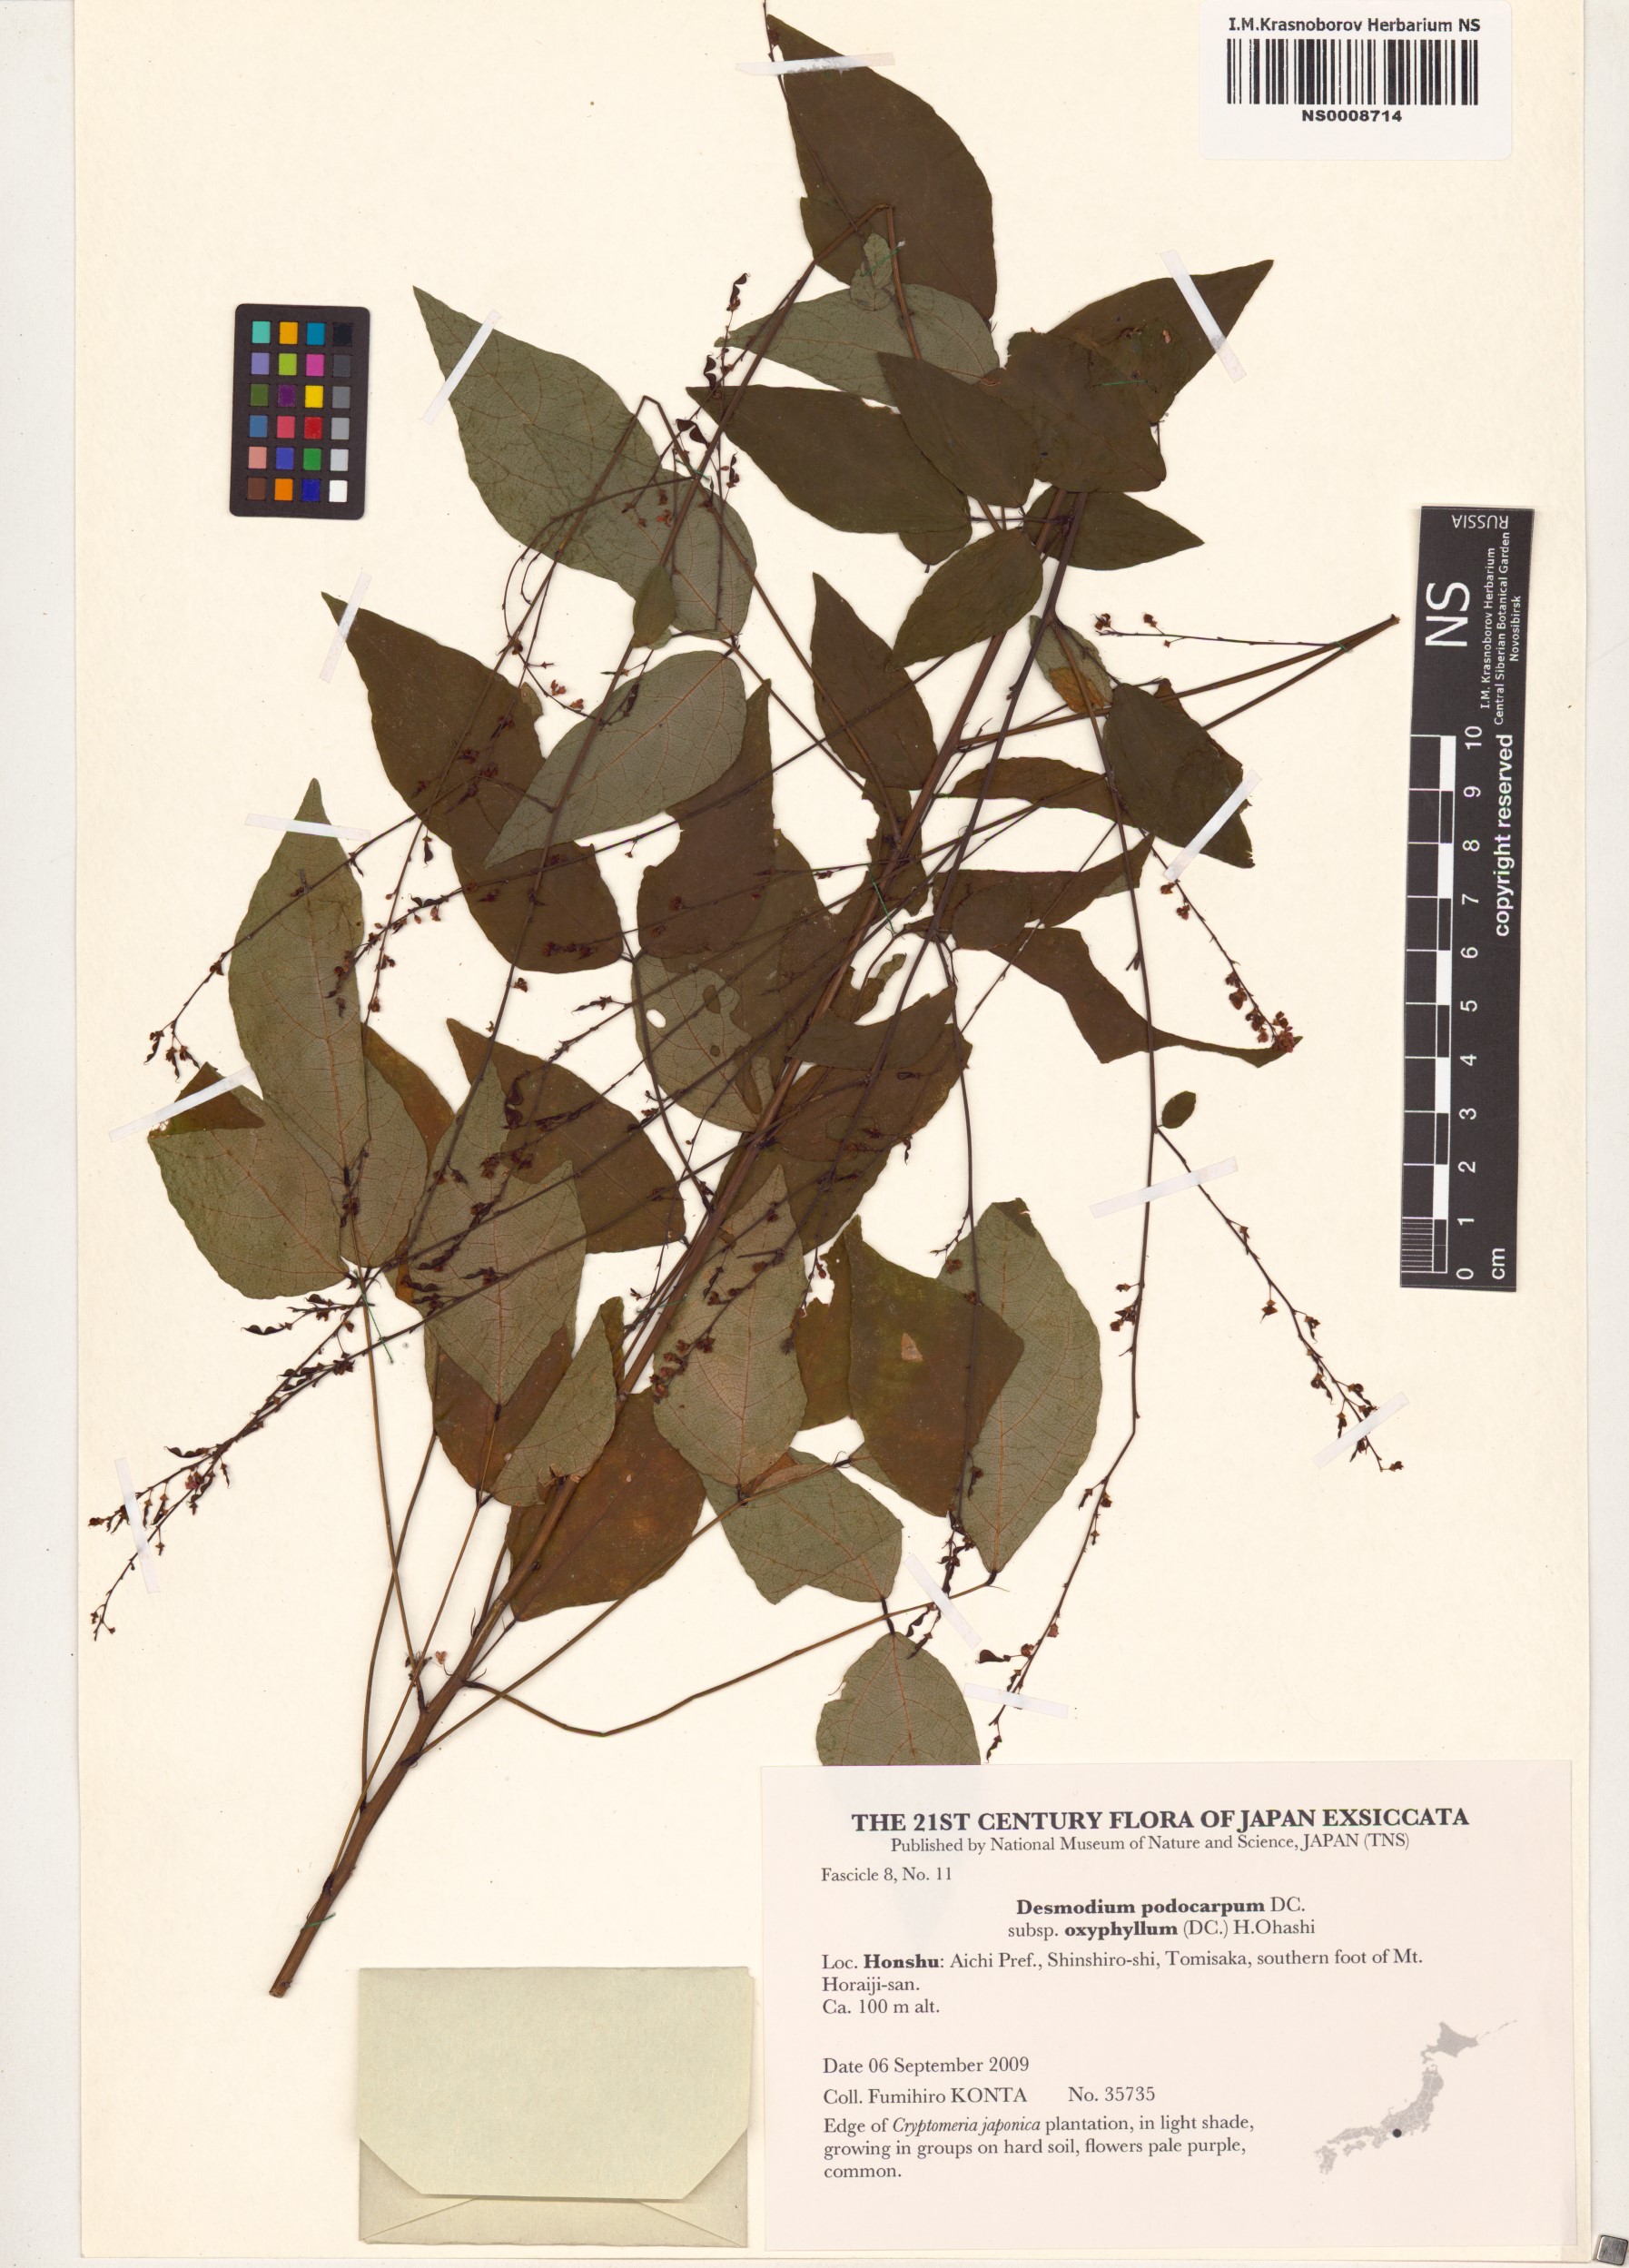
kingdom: Plantae
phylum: Tracheophyta
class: Magnoliopsida
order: Fabales
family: Fabaceae
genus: Hylodesmum
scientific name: Hylodesmum podocarpum
